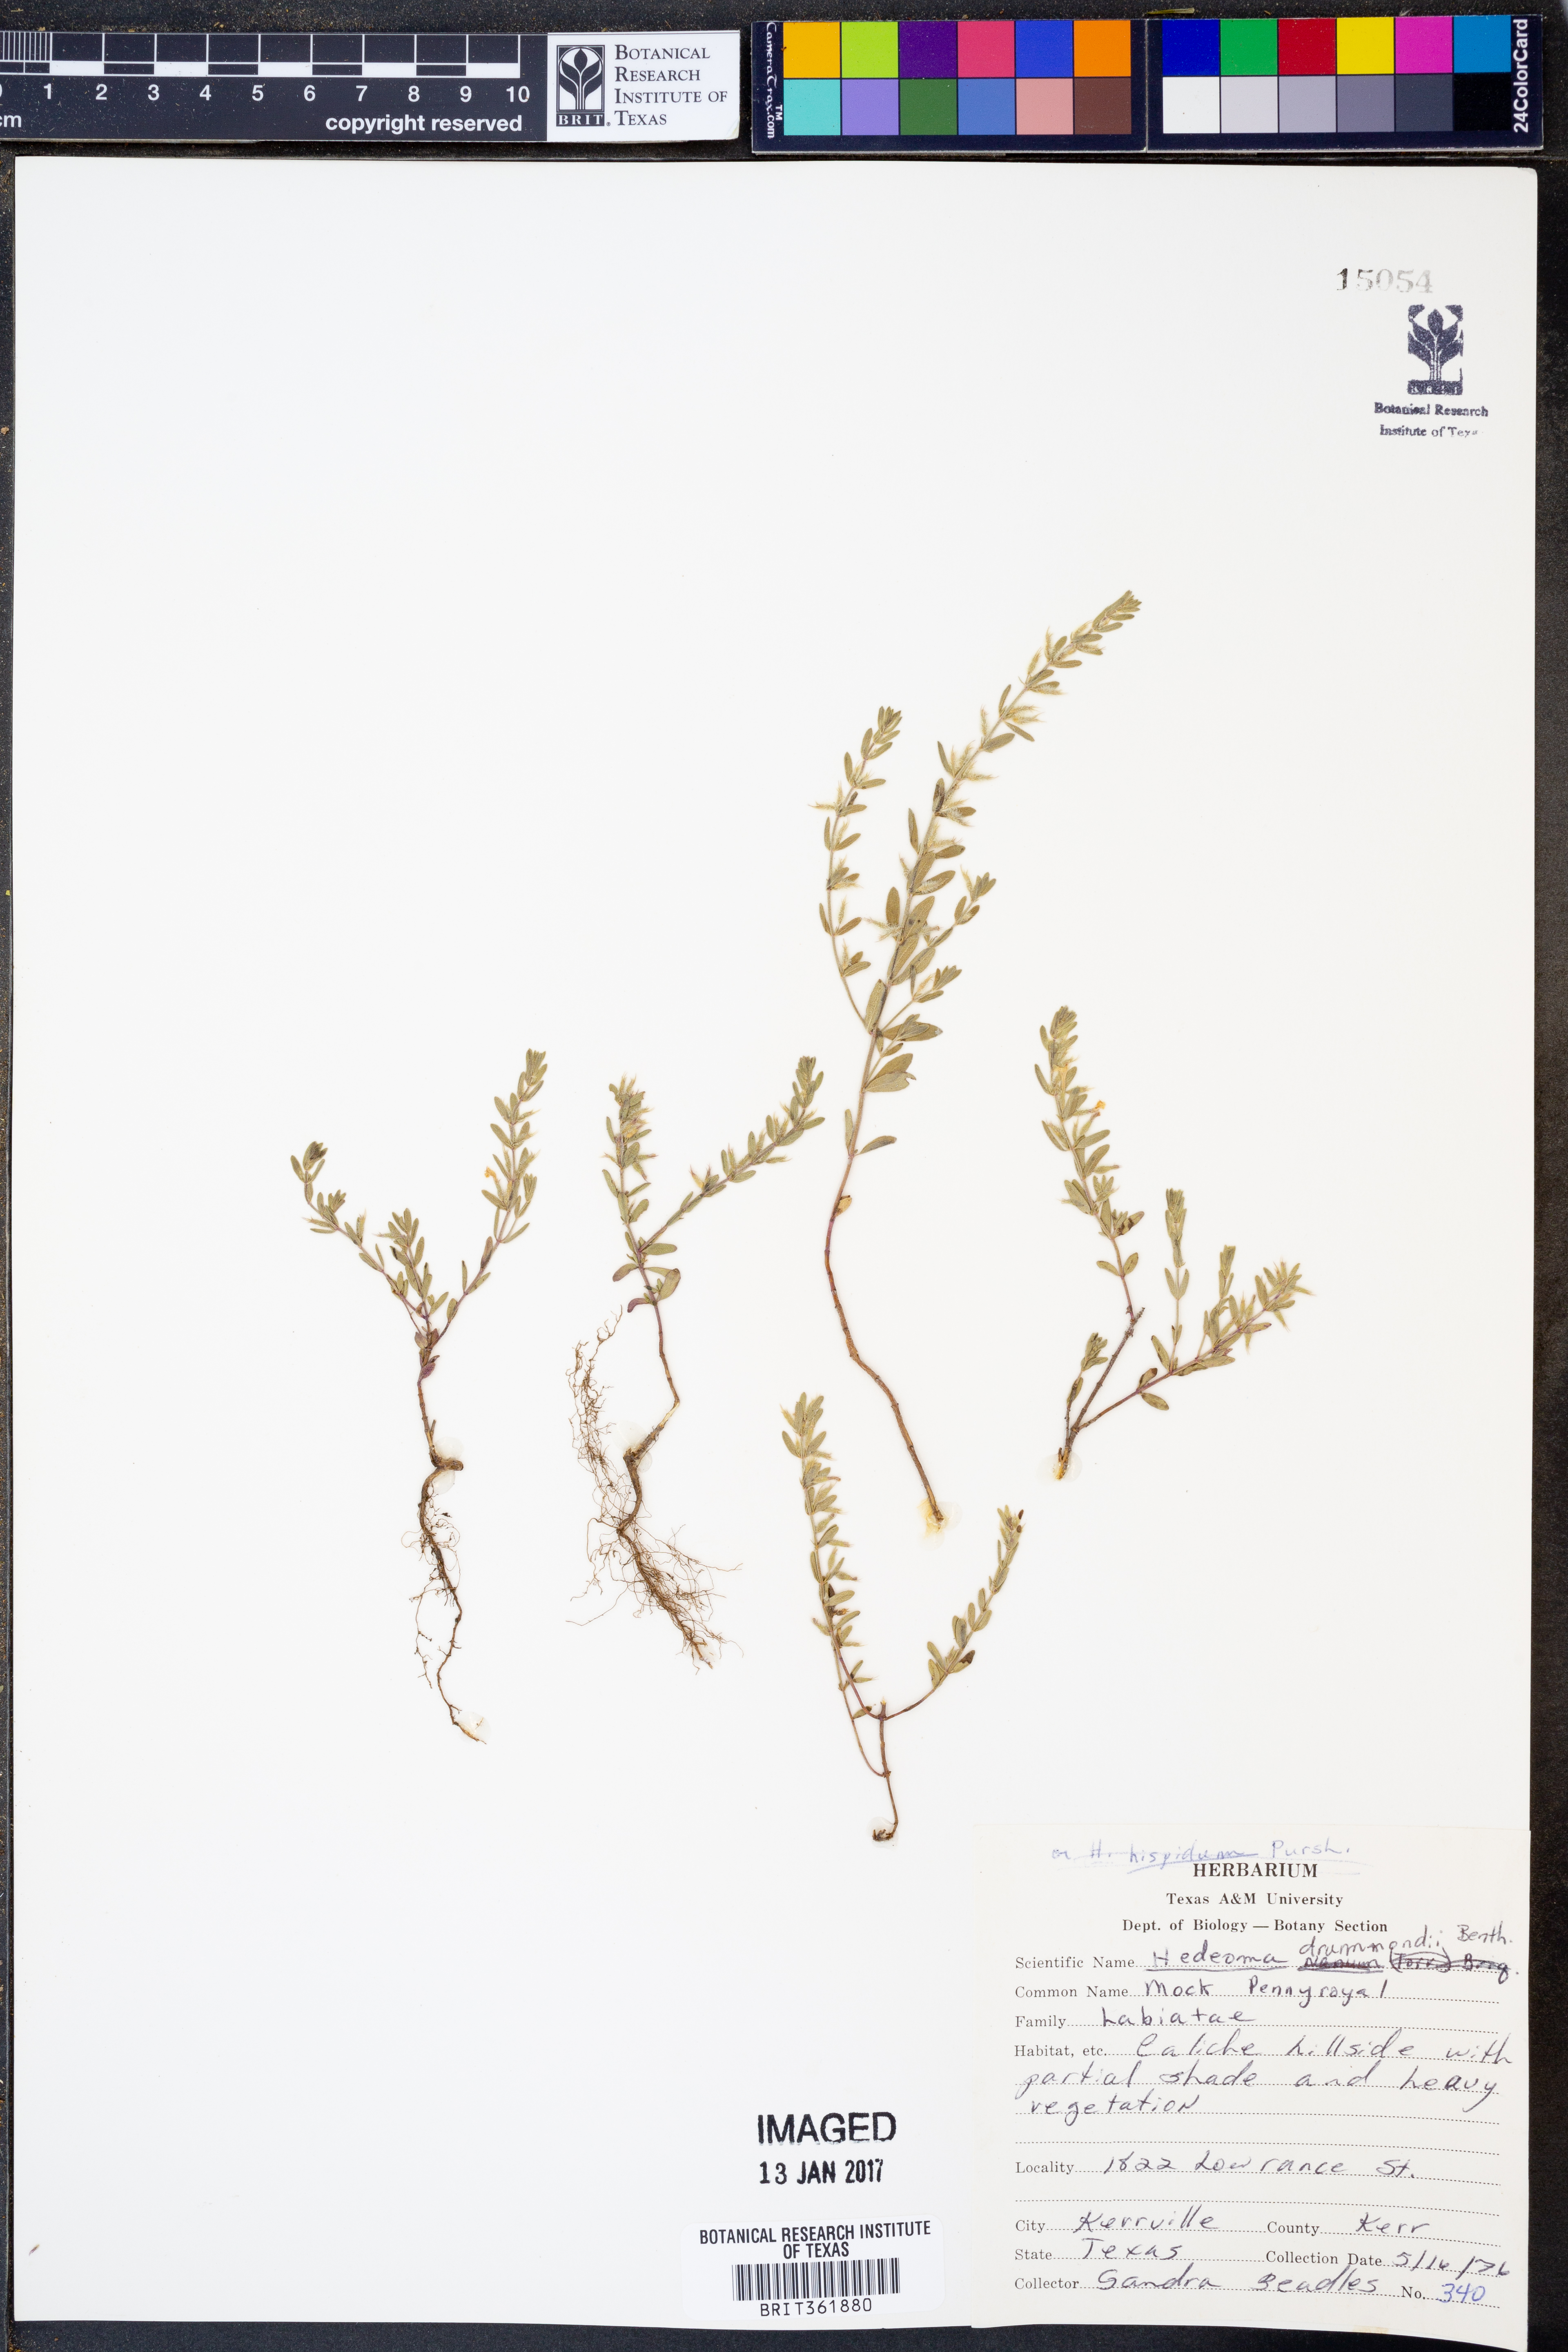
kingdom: Plantae
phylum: Tracheophyta
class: Magnoliopsida
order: Lamiales
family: Lamiaceae
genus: Hedeoma
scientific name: Hedeoma drummondii
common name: New mexico pennyroyal
